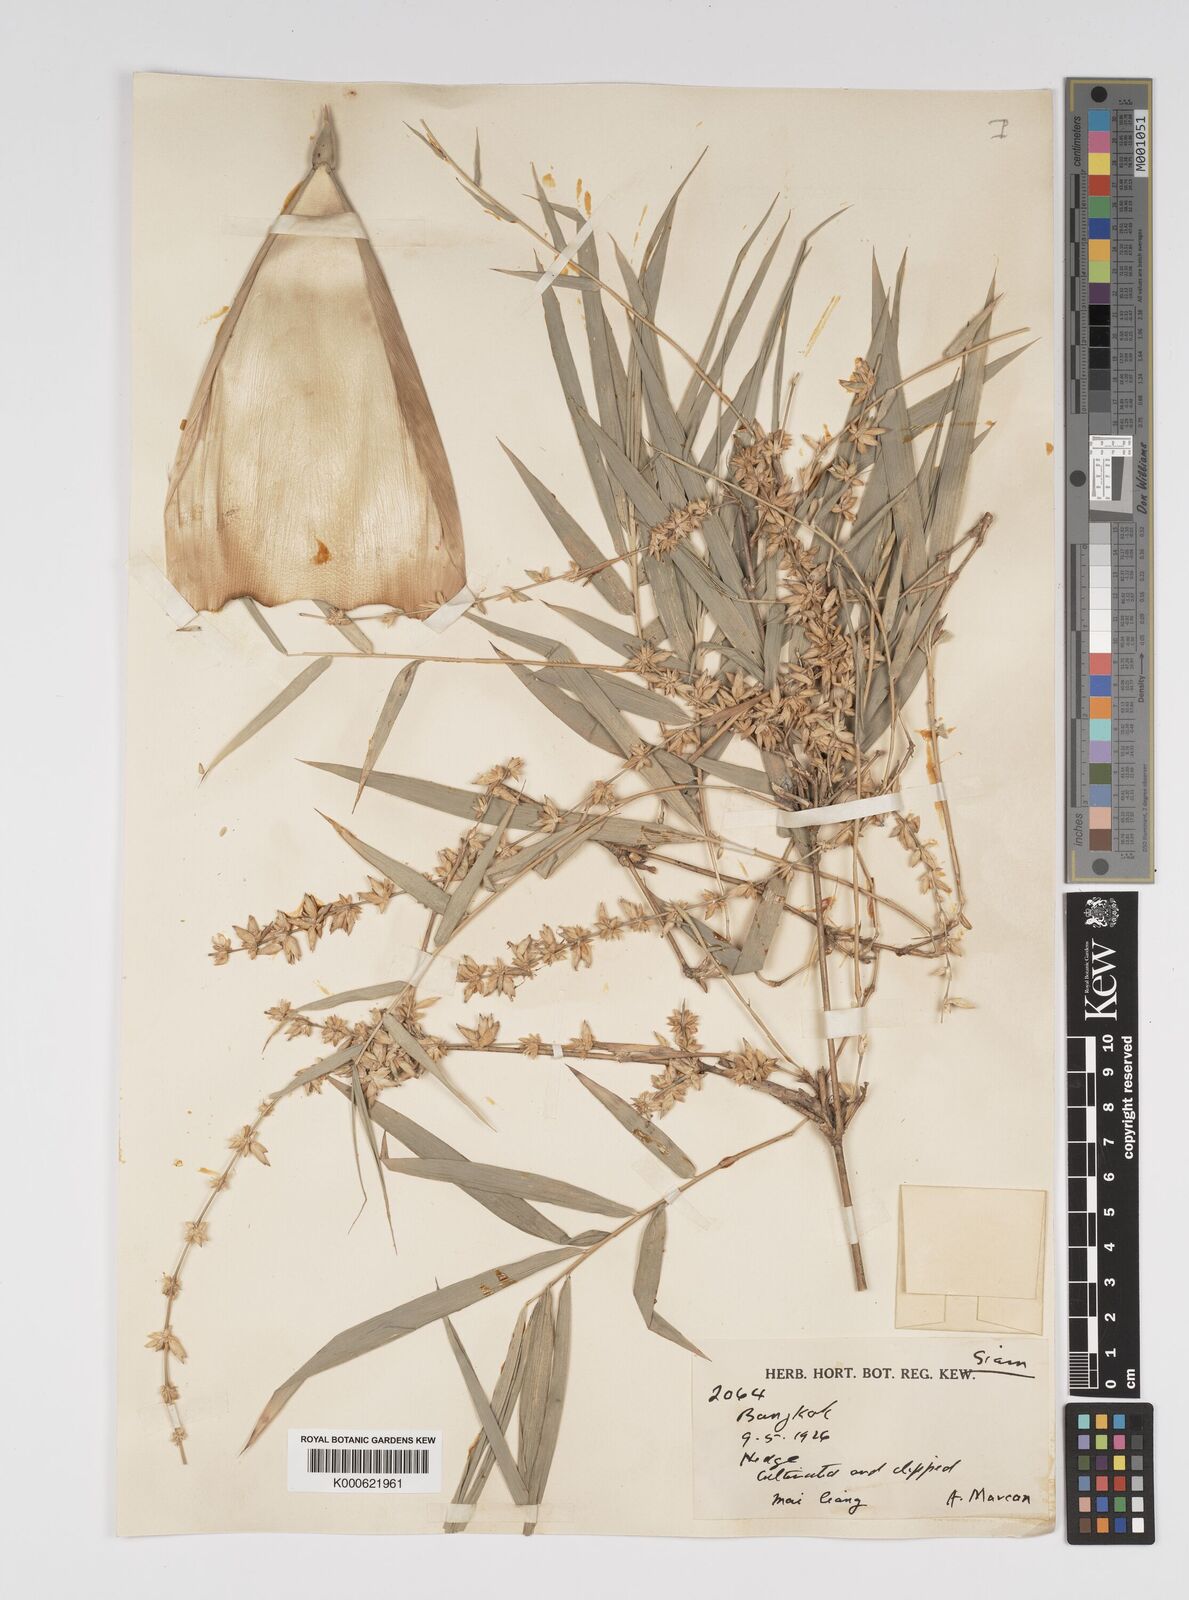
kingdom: Plantae
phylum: Tracheophyta
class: Liliopsida
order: Poales
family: Poaceae
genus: Bambusa
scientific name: Bambusa
